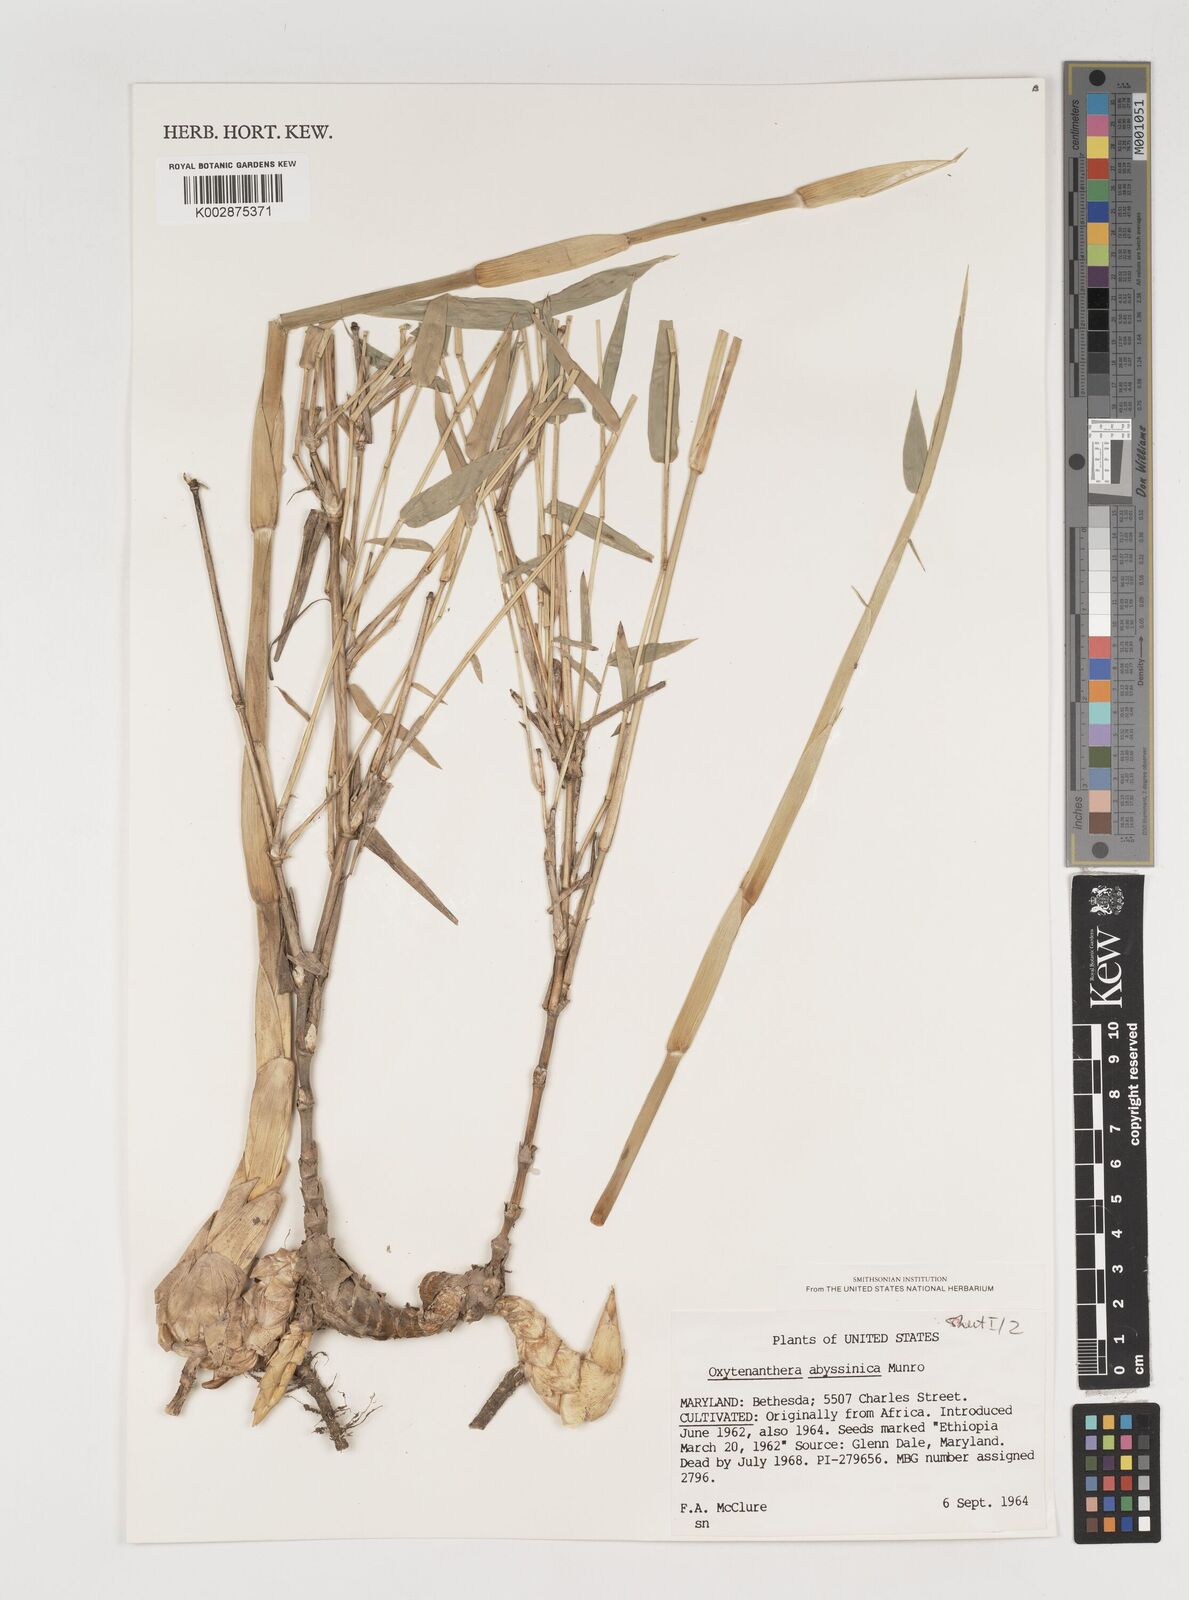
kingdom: Plantae
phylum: Tracheophyta
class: Liliopsida
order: Poales
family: Poaceae
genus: Oxytenanthera
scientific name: Oxytenanthera abyssinica
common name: Wine bamboo
